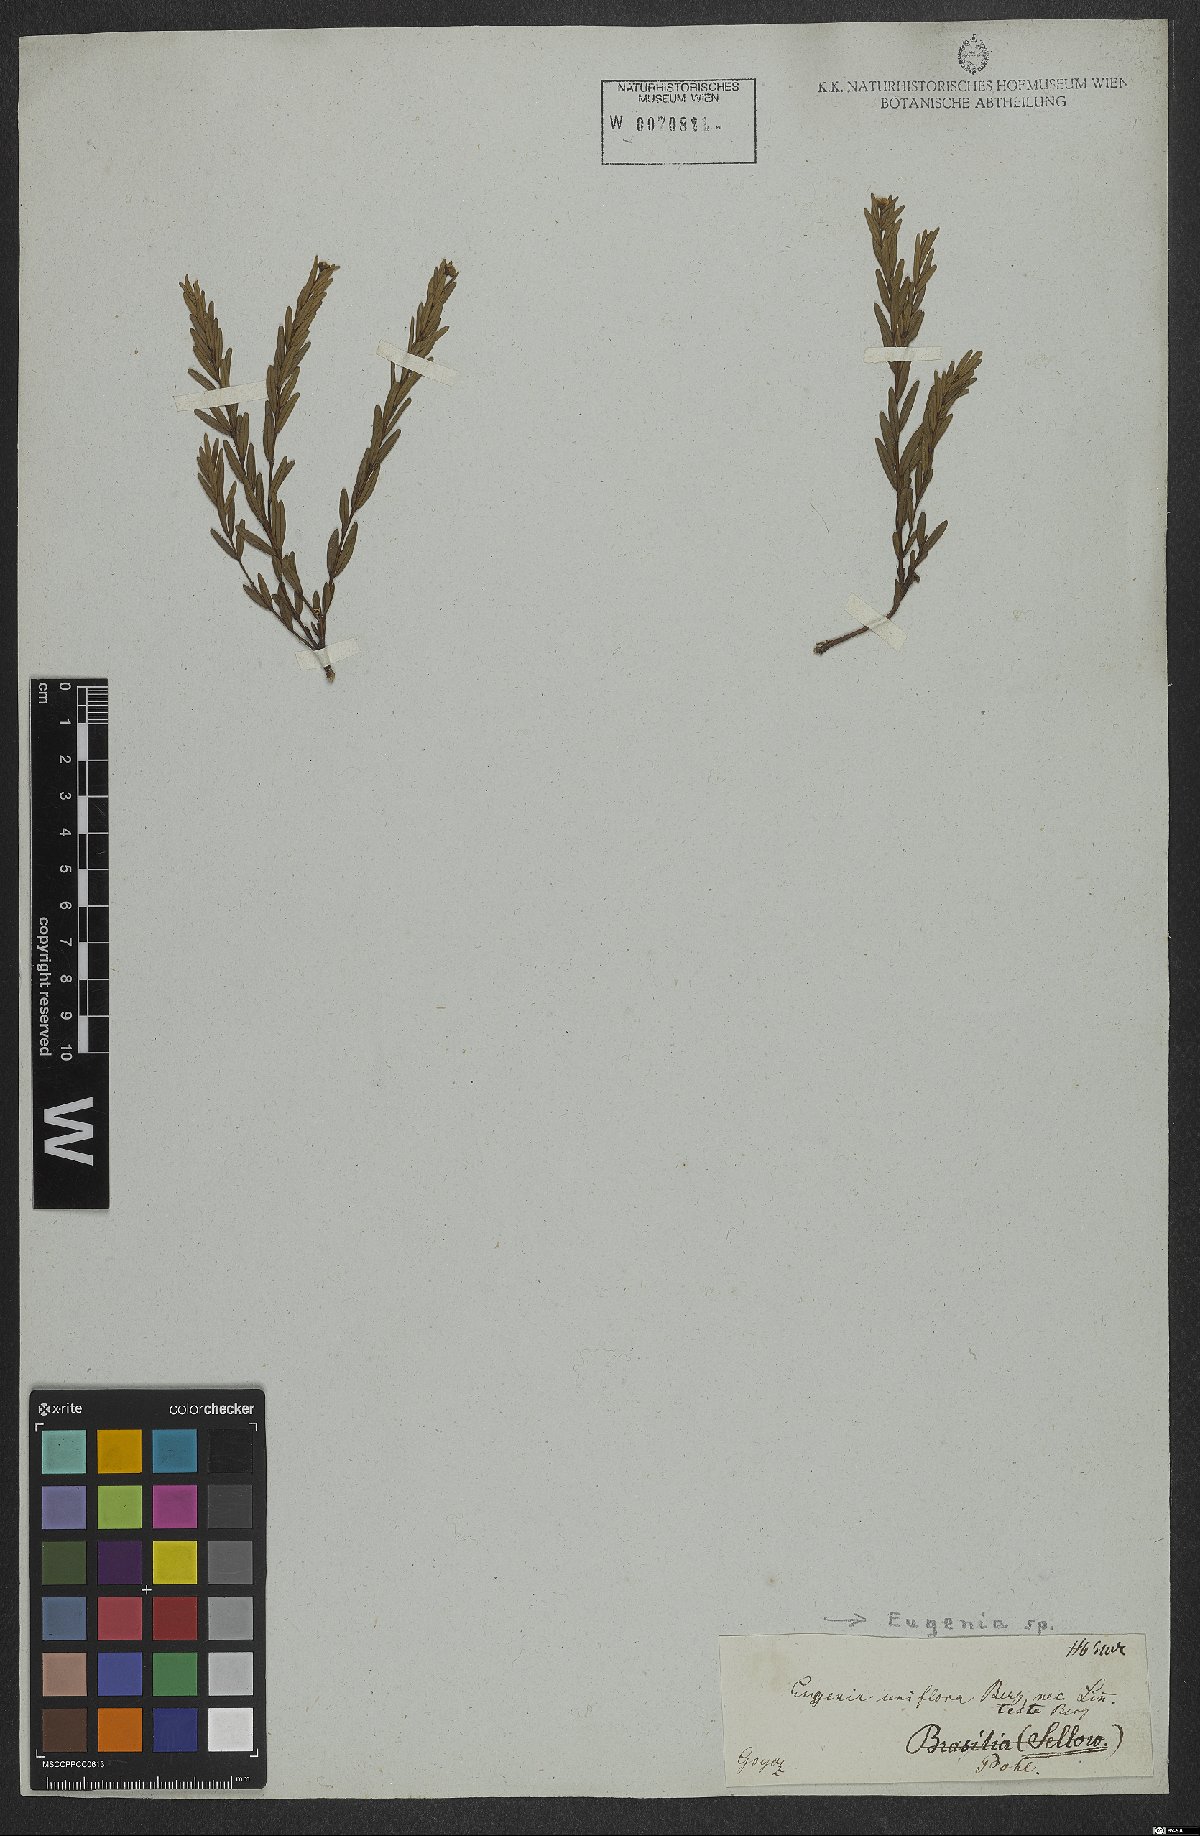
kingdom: Plantae
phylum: Tracheophyta
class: Magnoliopsida
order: Myrtales
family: Myrtaceae
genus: Eugenia
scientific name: Eugenia
